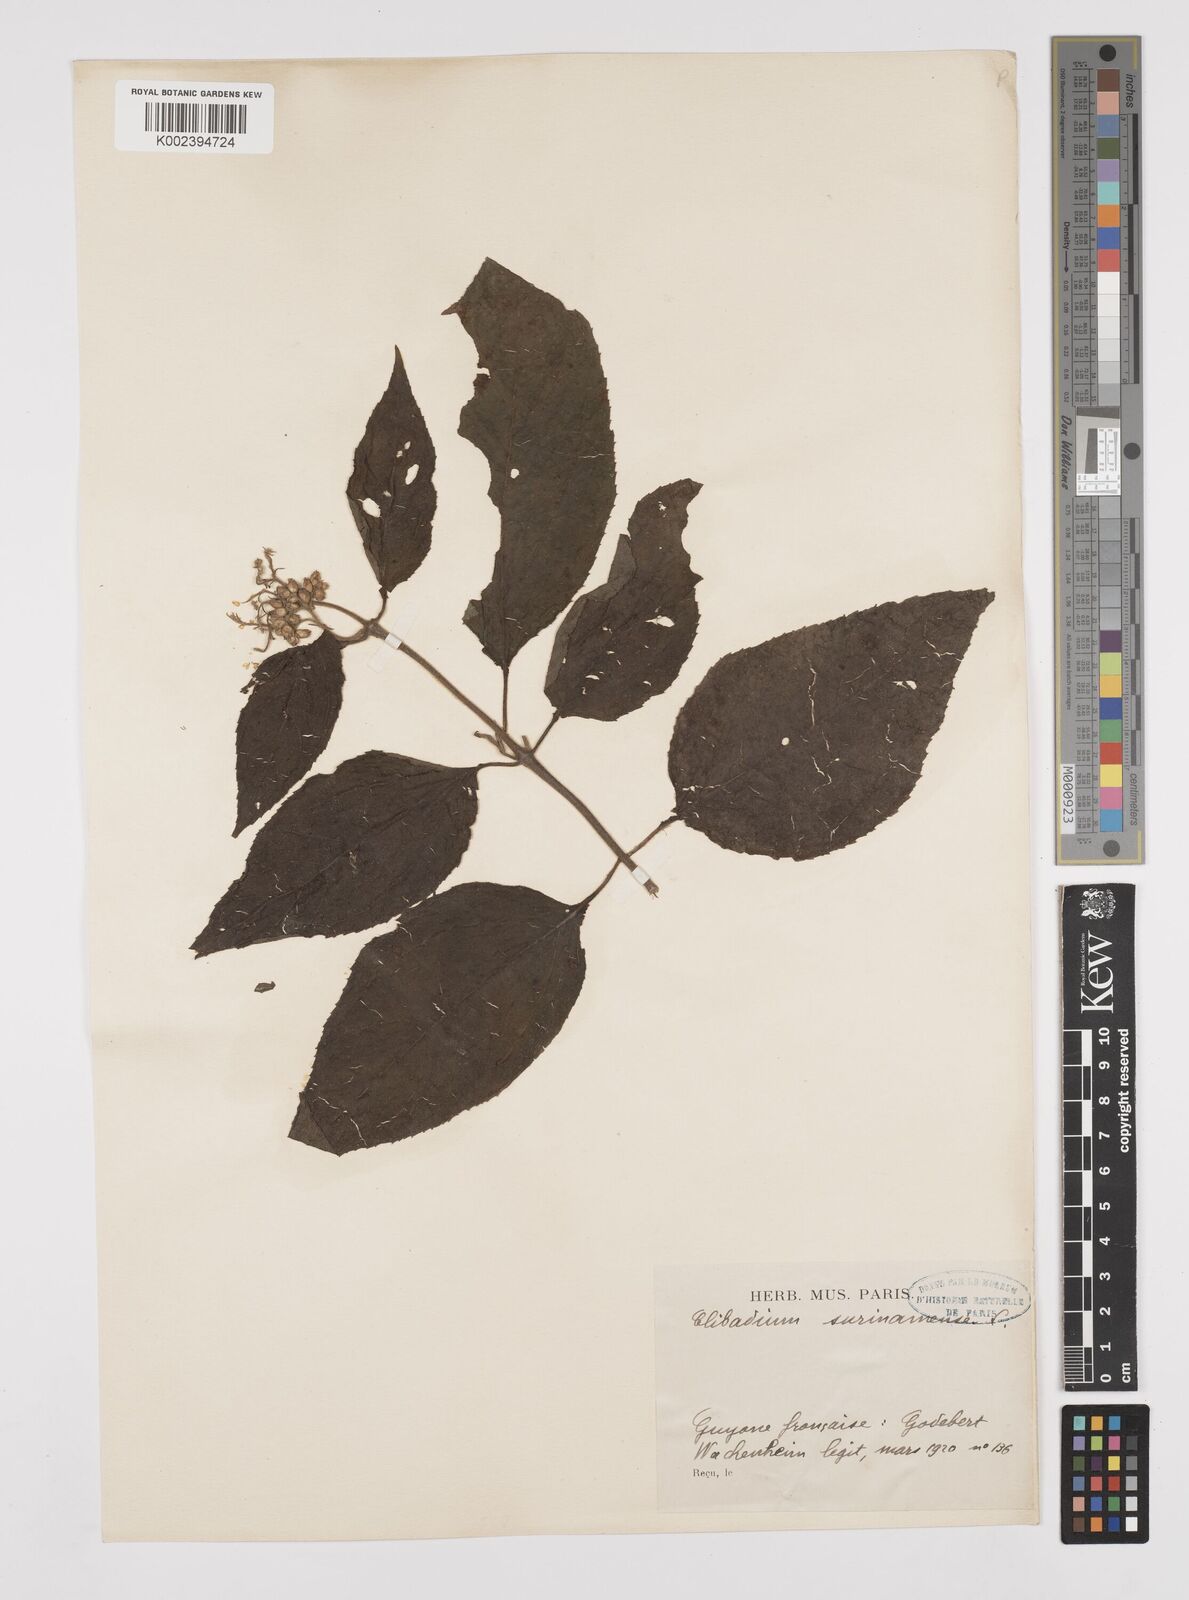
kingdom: Plantae
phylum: Tracheophyta
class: Magnoliopsida
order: Asterales
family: Asteraceae
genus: Clibadium
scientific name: Clibadium surinamense
